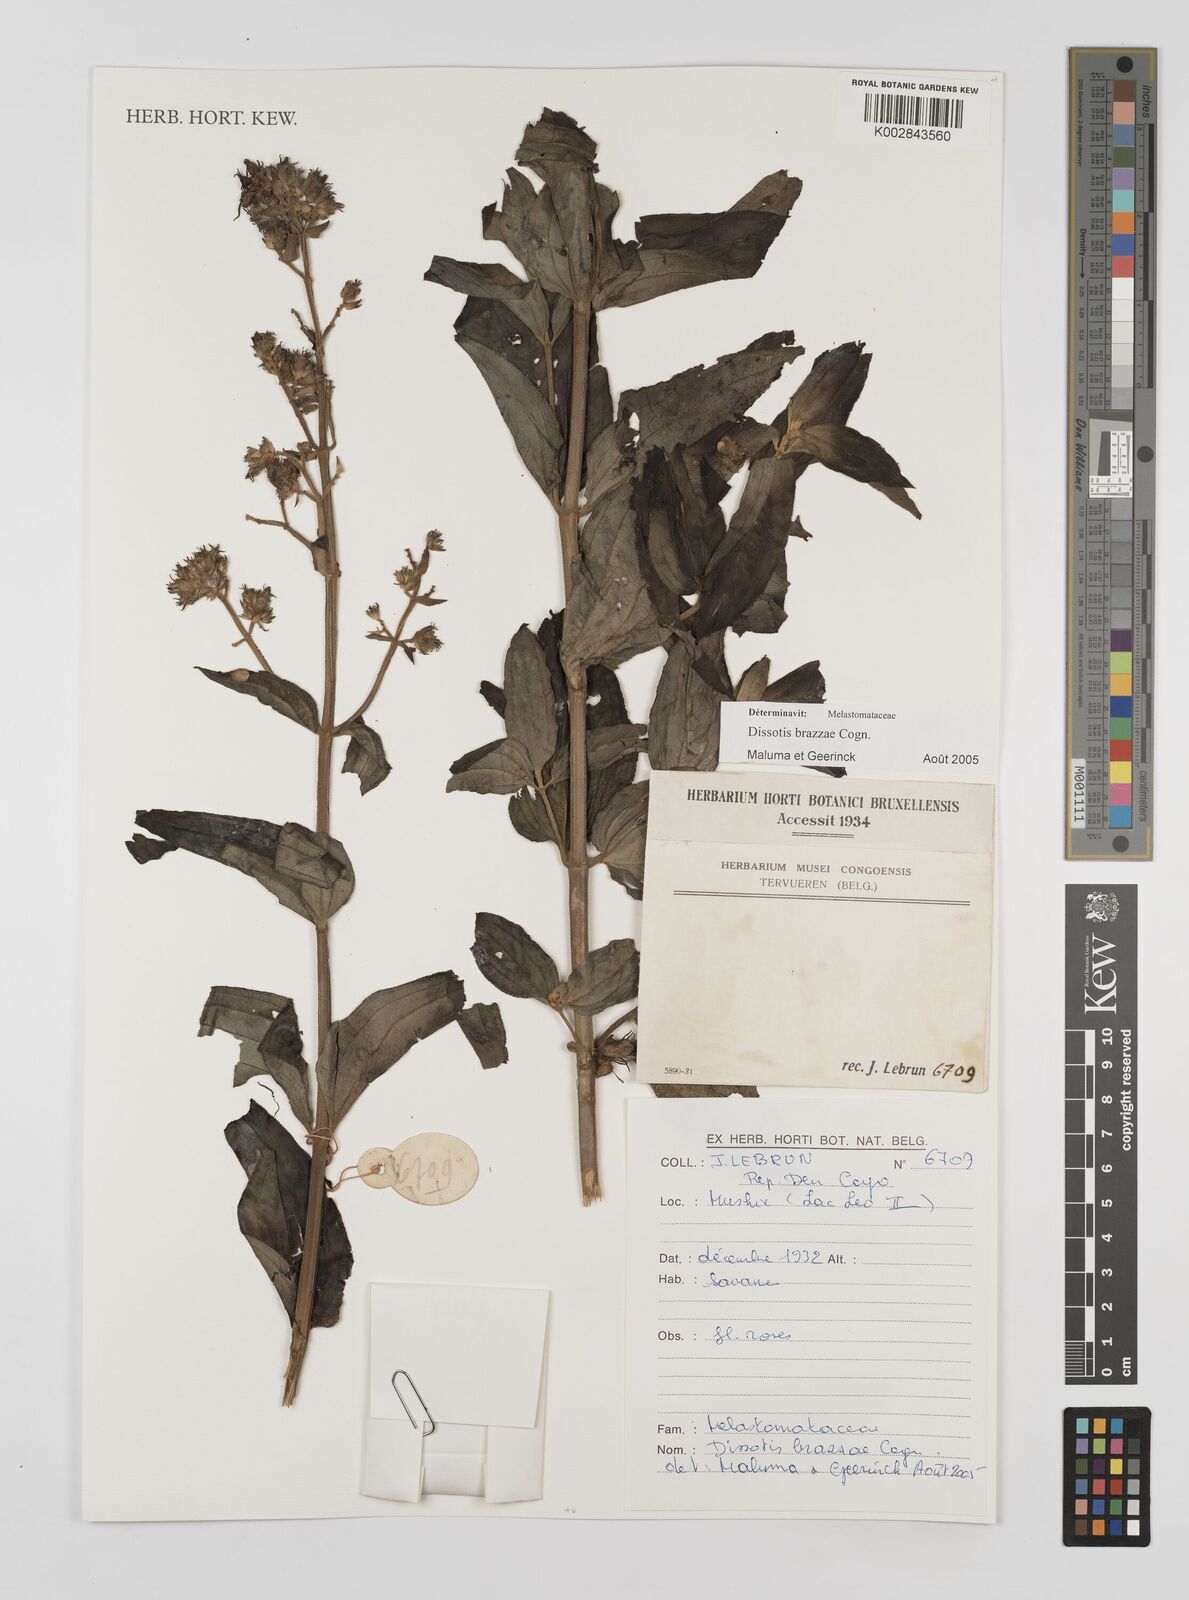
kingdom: Plantae
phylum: Tracheophyta
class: Magnoliopsida
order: Myrtales
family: Melastomataceae
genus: Dupineta
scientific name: Dupineta brazzae
